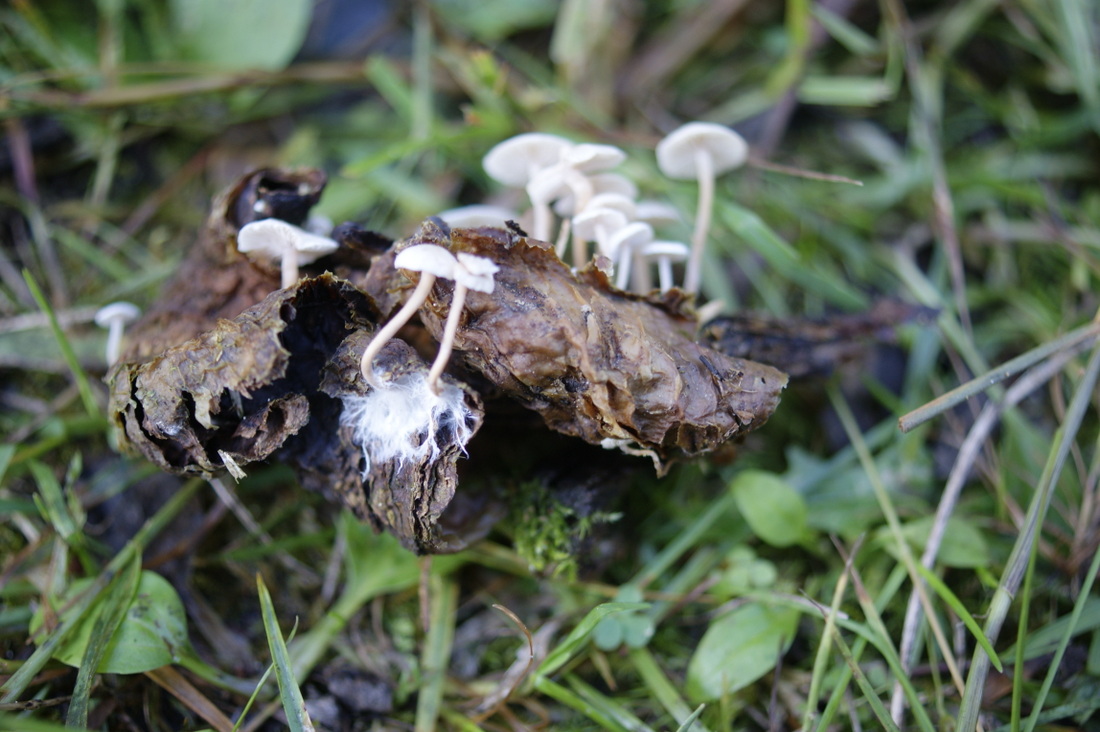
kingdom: Fungi
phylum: Basidiomycota
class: Agaricomycetes
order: Agaricales
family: Tricholomataceae
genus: Collybia
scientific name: Collybia cirrhata
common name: silke-lighat
